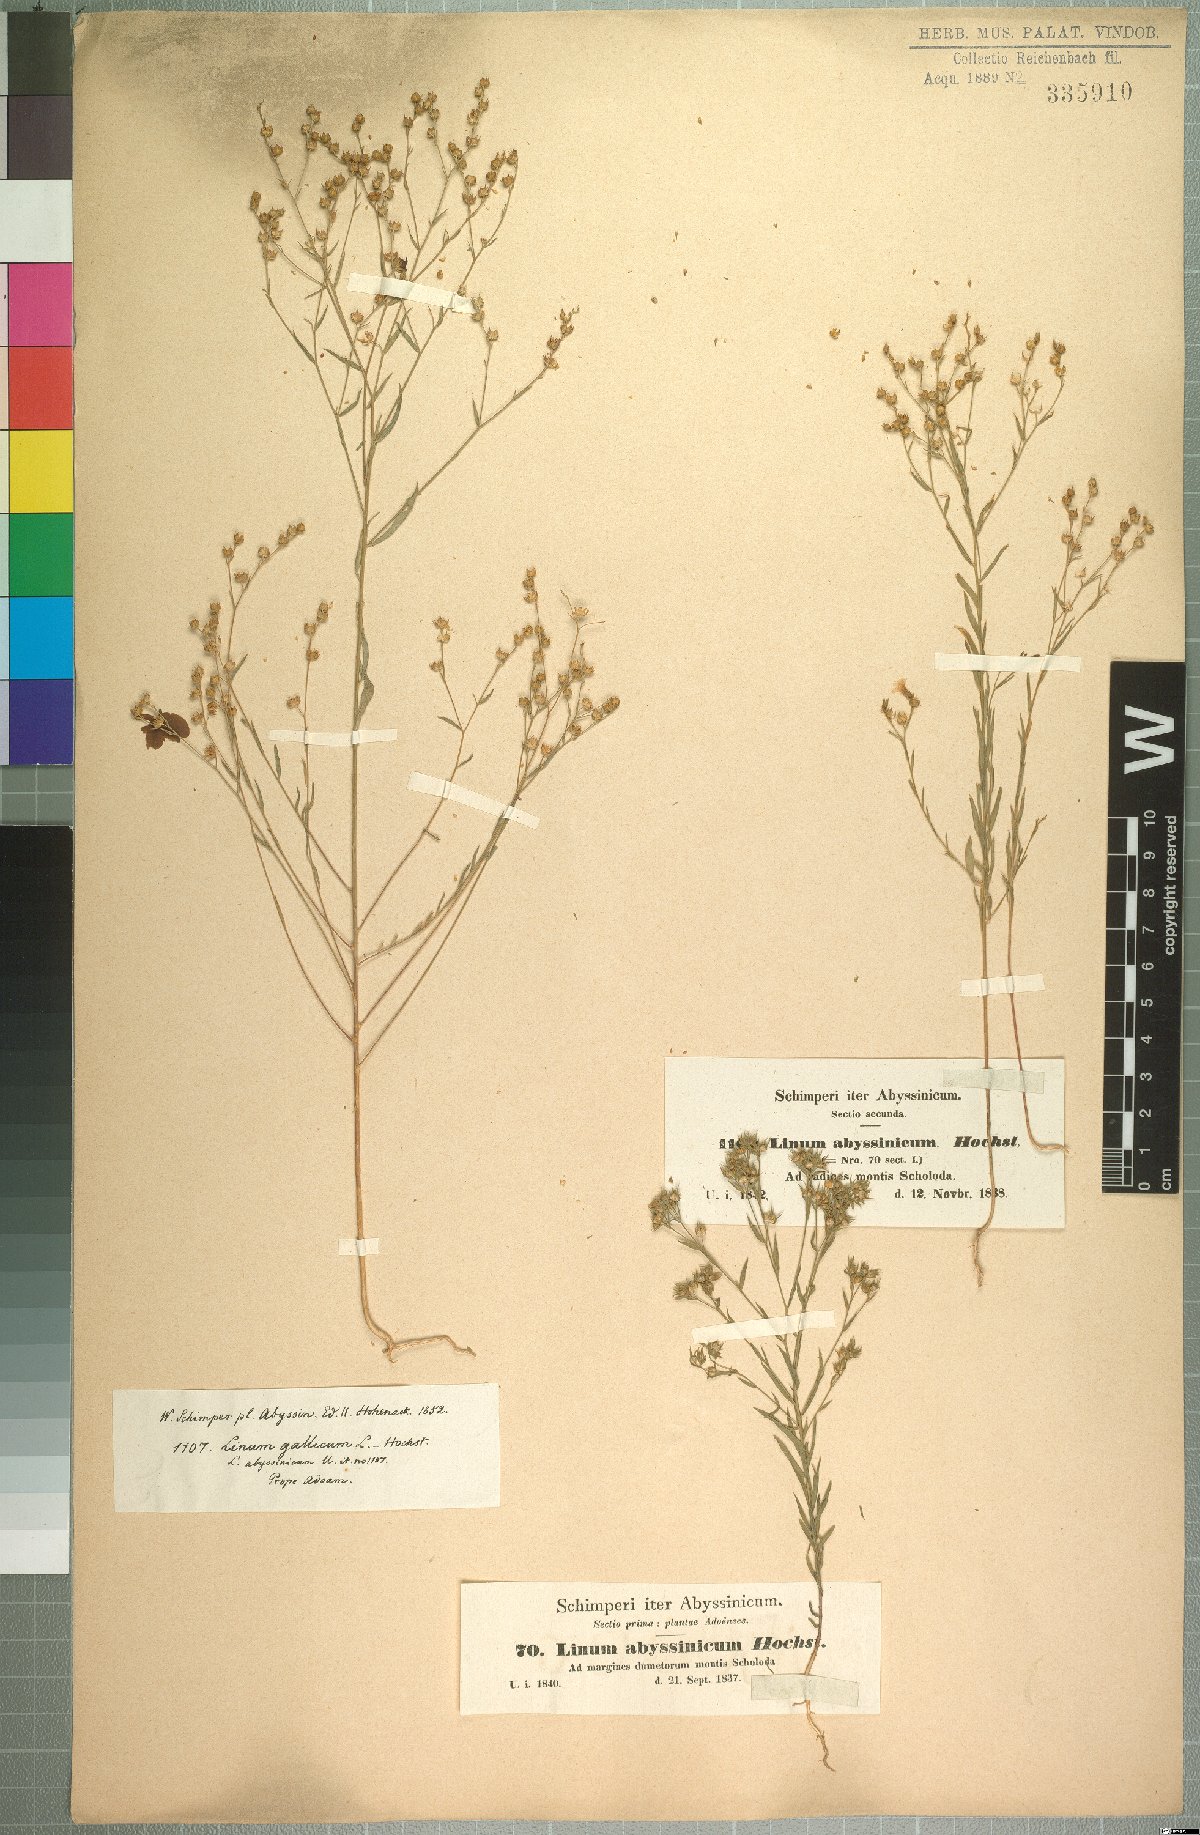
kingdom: Plantae
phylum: Tracheophyta
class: Magnoliopsida
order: Malpighiales
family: Linaceae
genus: Linum
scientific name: Linum trigynum
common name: French flax
